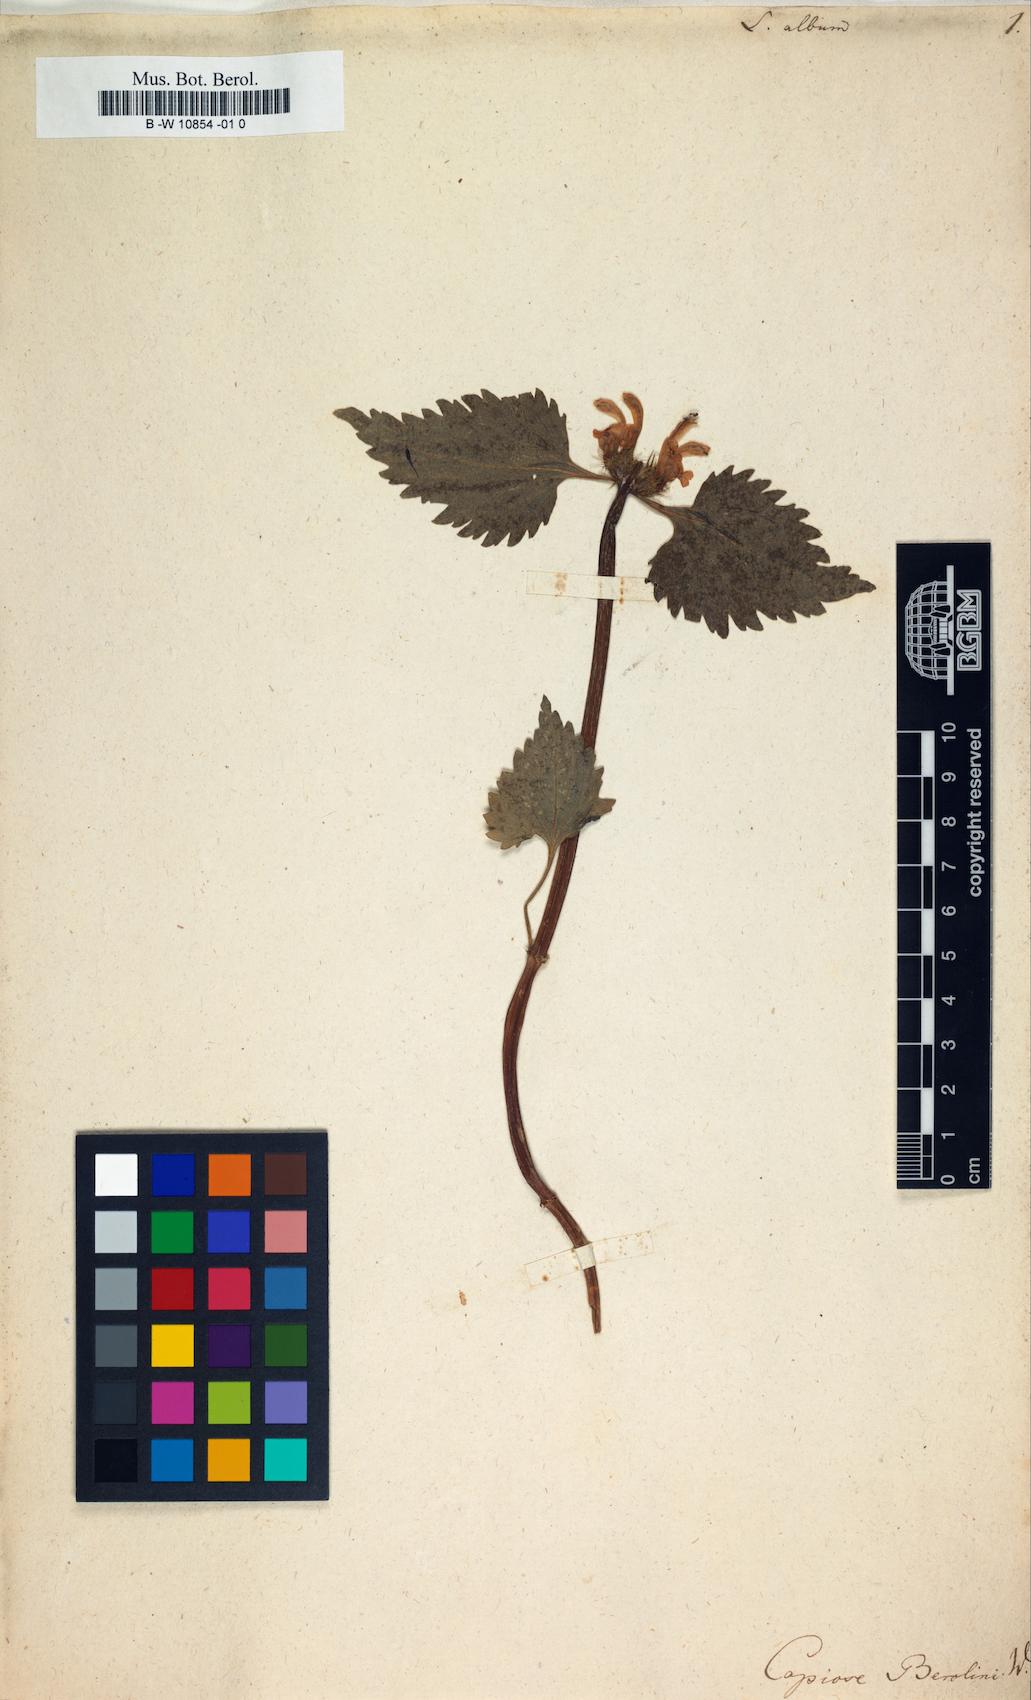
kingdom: Plantae
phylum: Tracheophyta
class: Magnoliopsida
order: Lamiales
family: Lamiaceae
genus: Lamium
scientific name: Lamium album
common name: White dead-nettle
